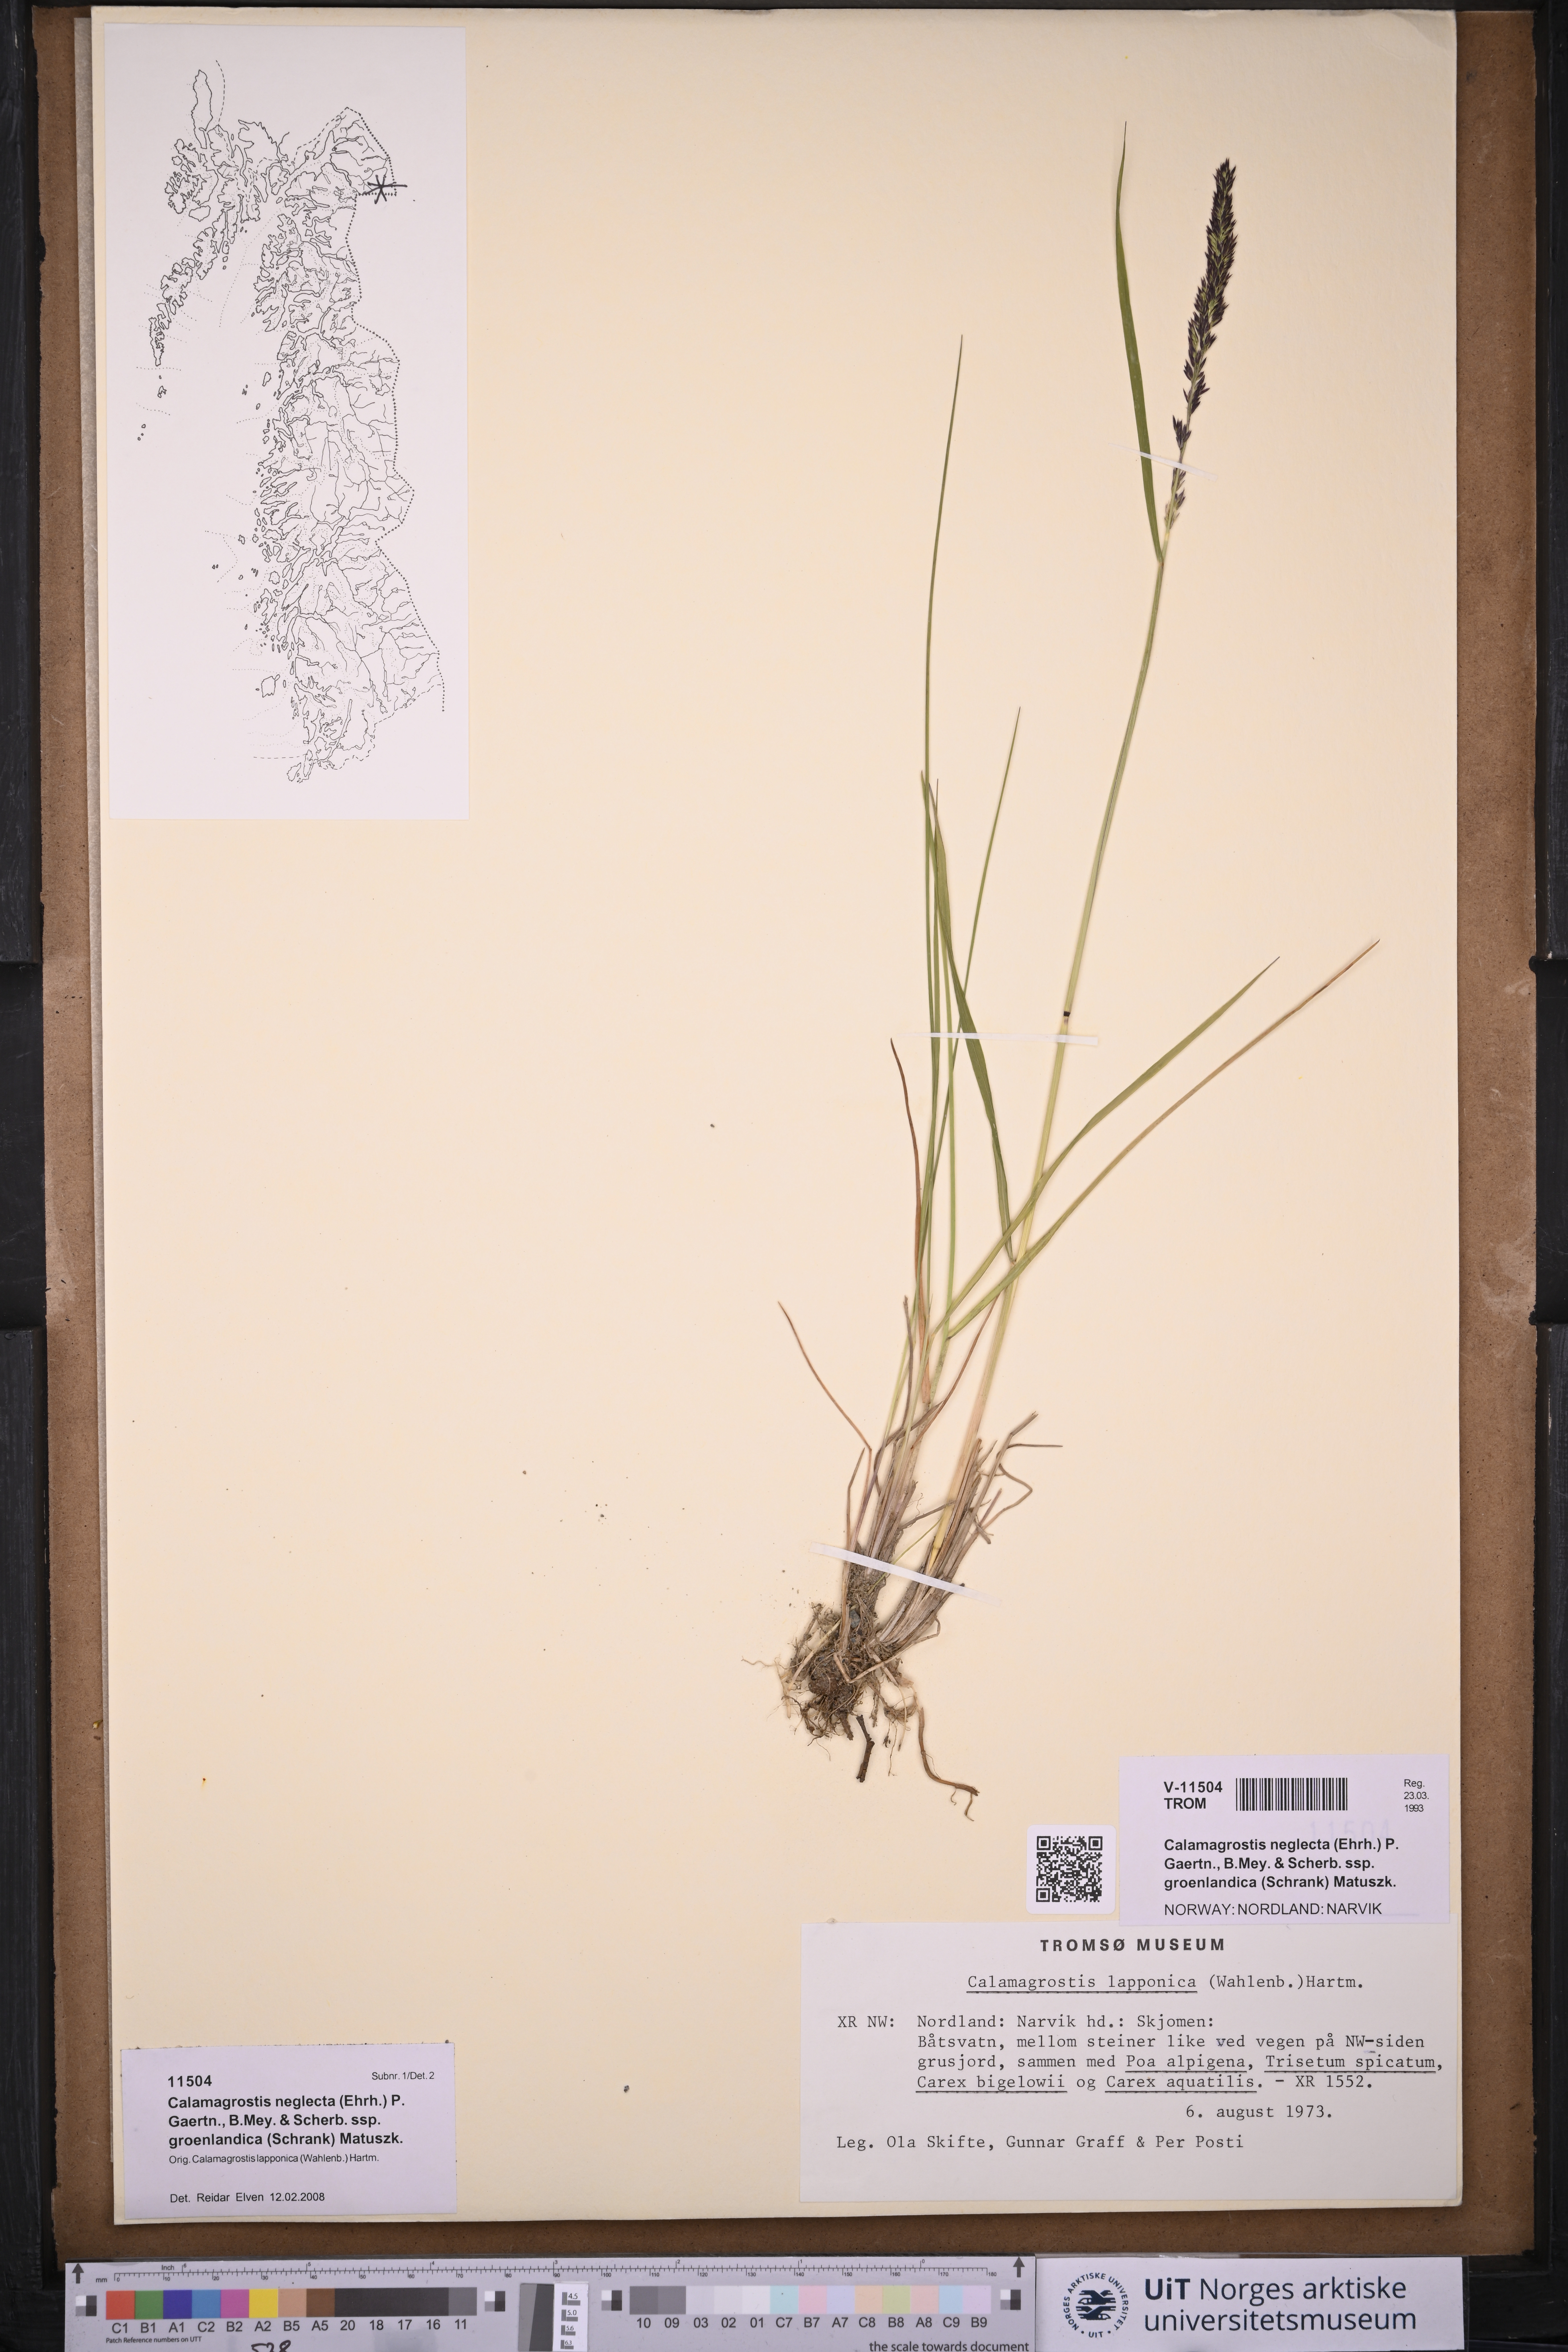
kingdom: Plantae
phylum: Tracheophyta
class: Liliopsida
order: Poales
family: Poaceae
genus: Calamagrostis
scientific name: Calamagrostis stricta
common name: Narrow small-reed
